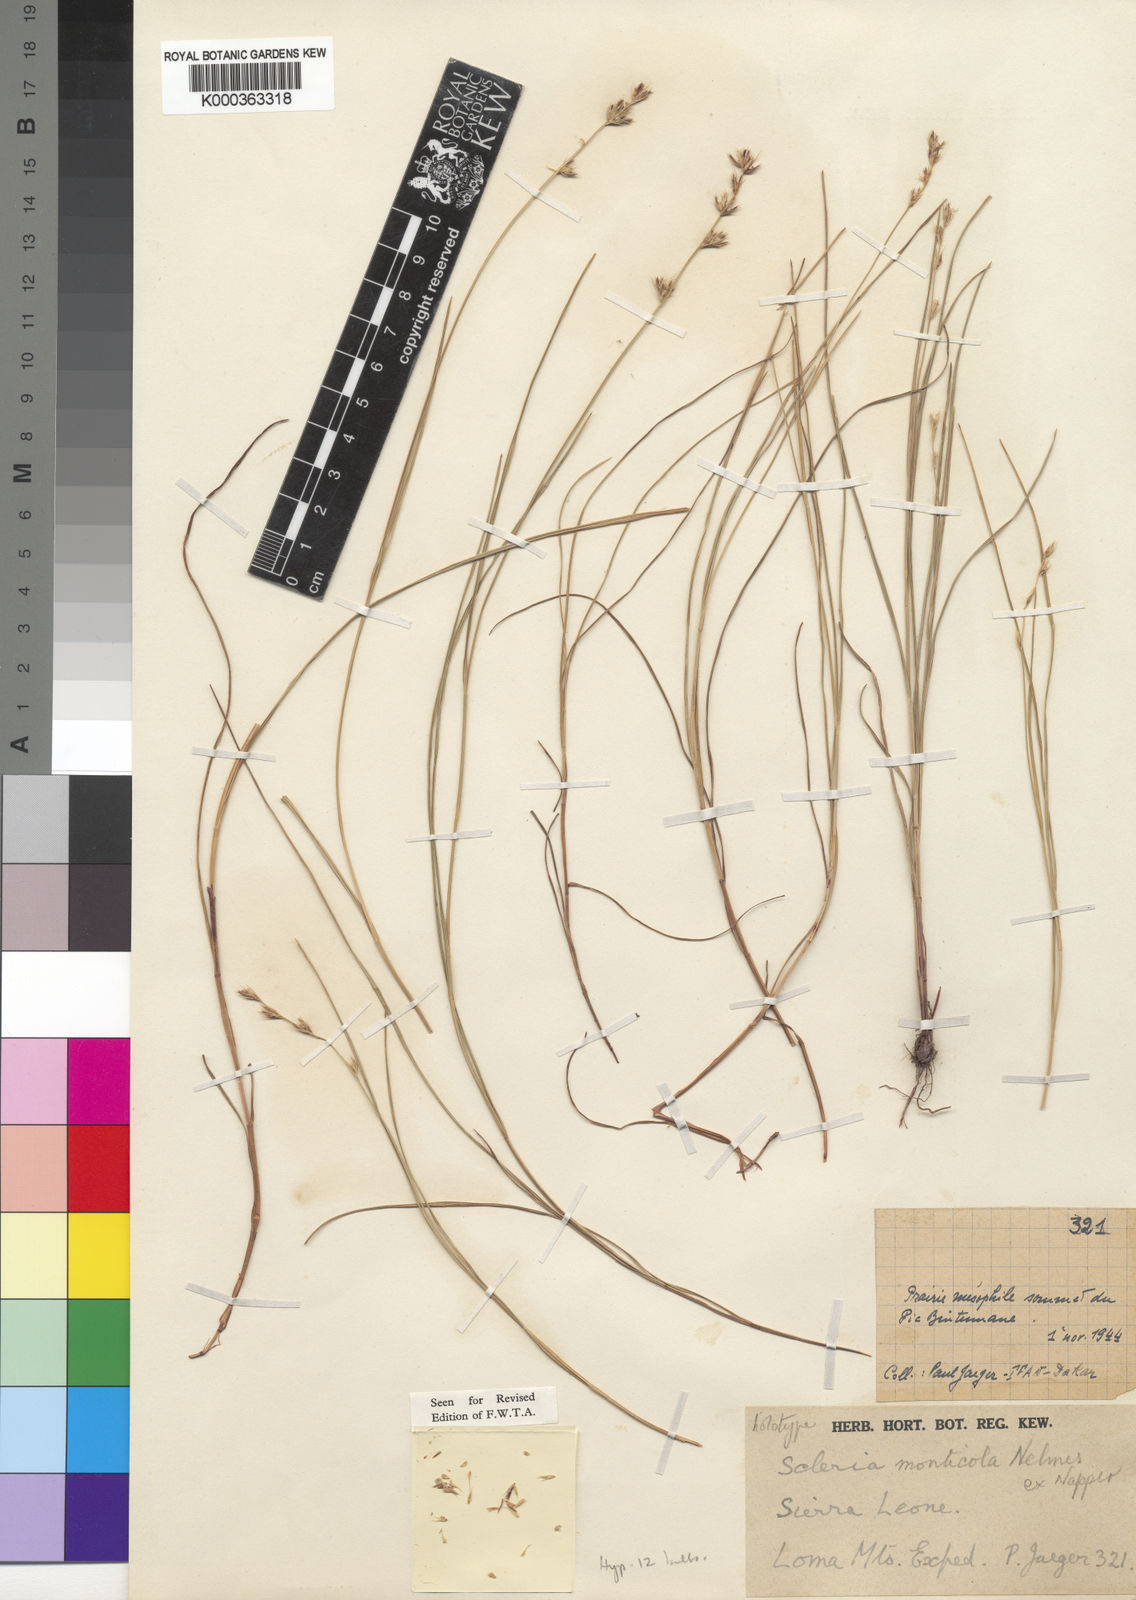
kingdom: Plantae
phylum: Tracheophyta
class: Liliopsida
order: Poales
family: Cyperaceae
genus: Scleria
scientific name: Scleria monticola
